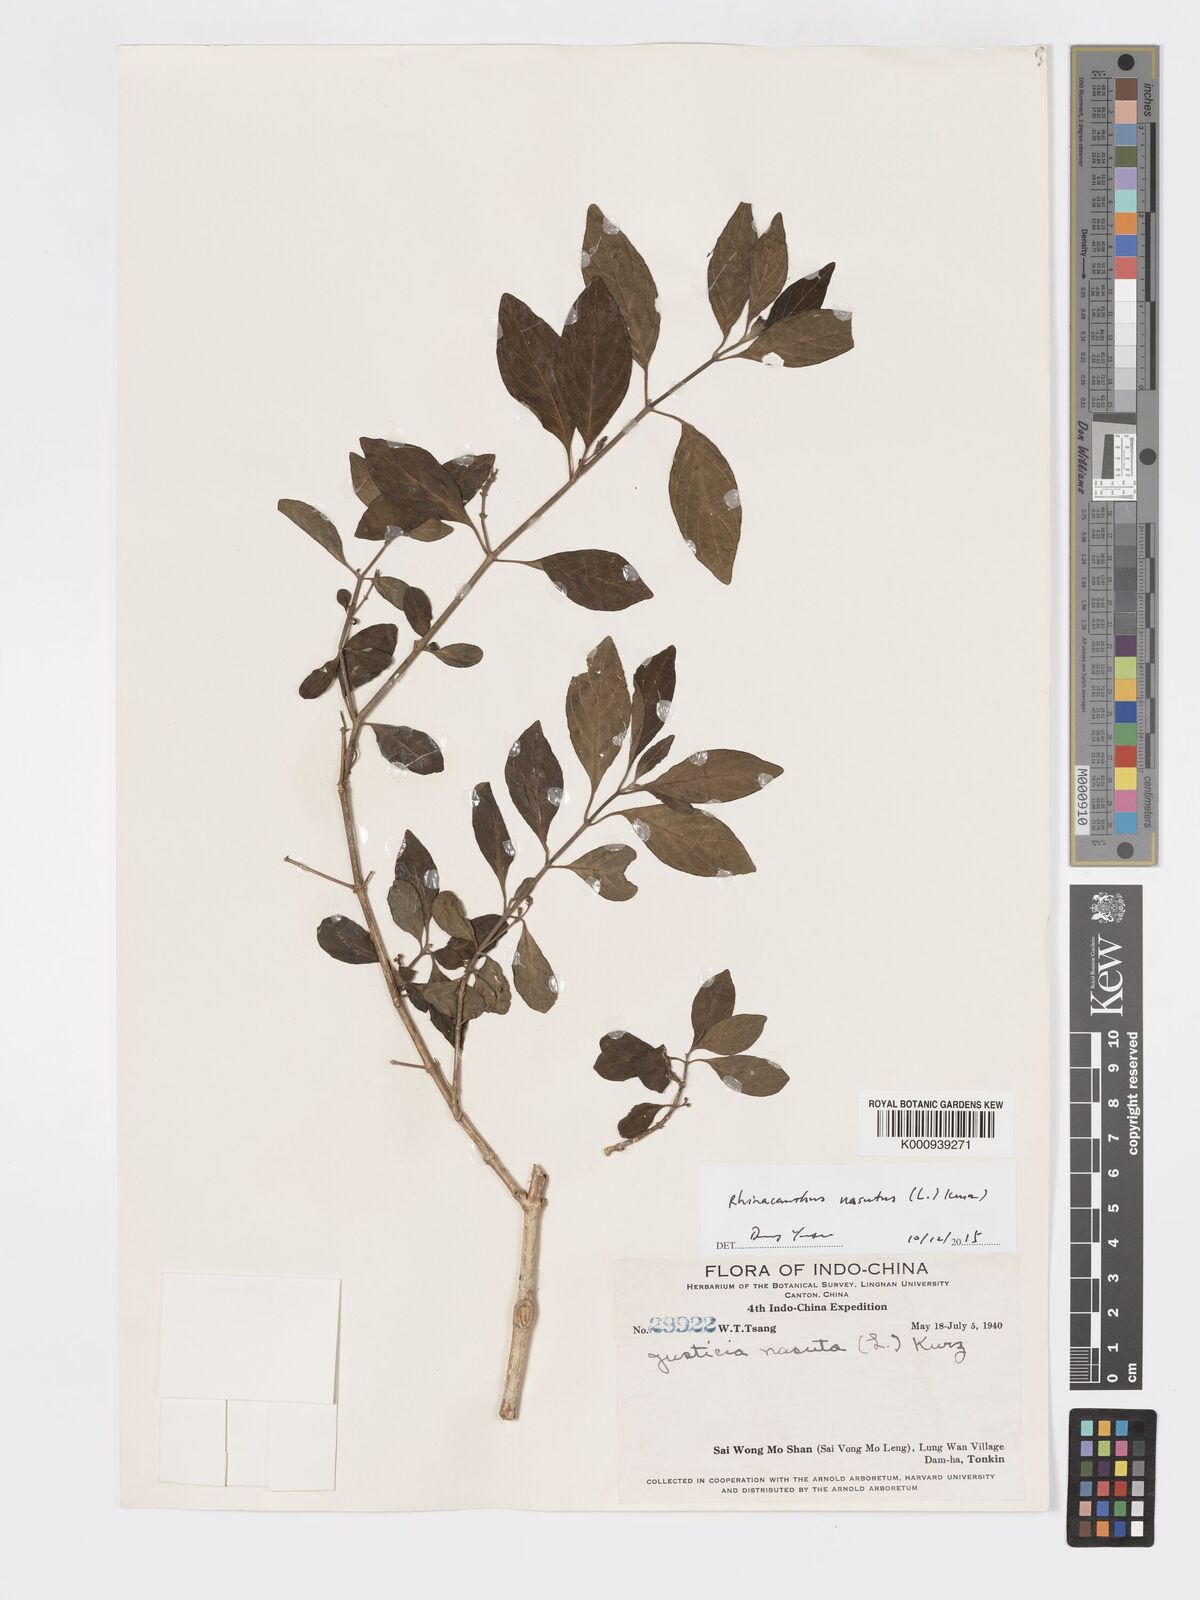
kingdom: Plantae
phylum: Tracheophyta
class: Magnoliopsida
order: Lamiales
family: Acanthaceae
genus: Rhinacanthus
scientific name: Rhinacanthus
